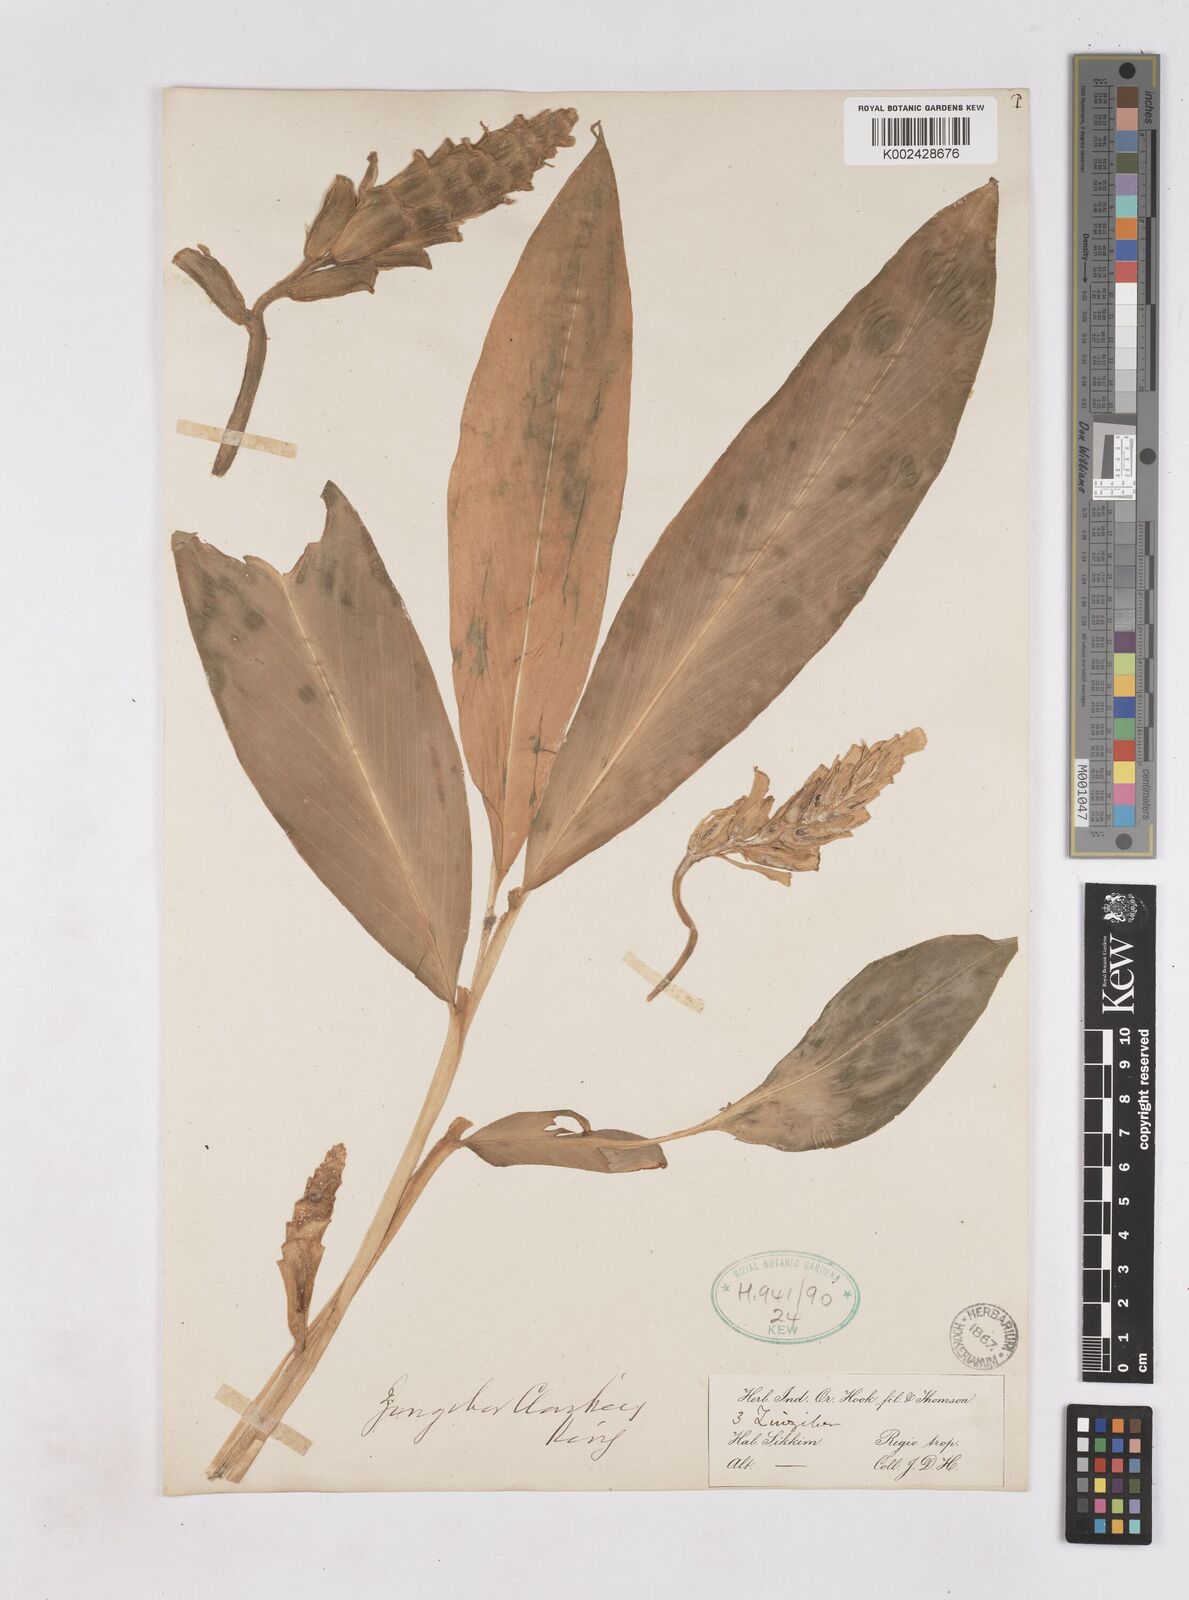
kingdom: Plantae
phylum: Tracheophyta
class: Liliopsida
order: Zingiberales
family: Zingiberaceae
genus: Zingiber
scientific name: Zingiber clarkei
